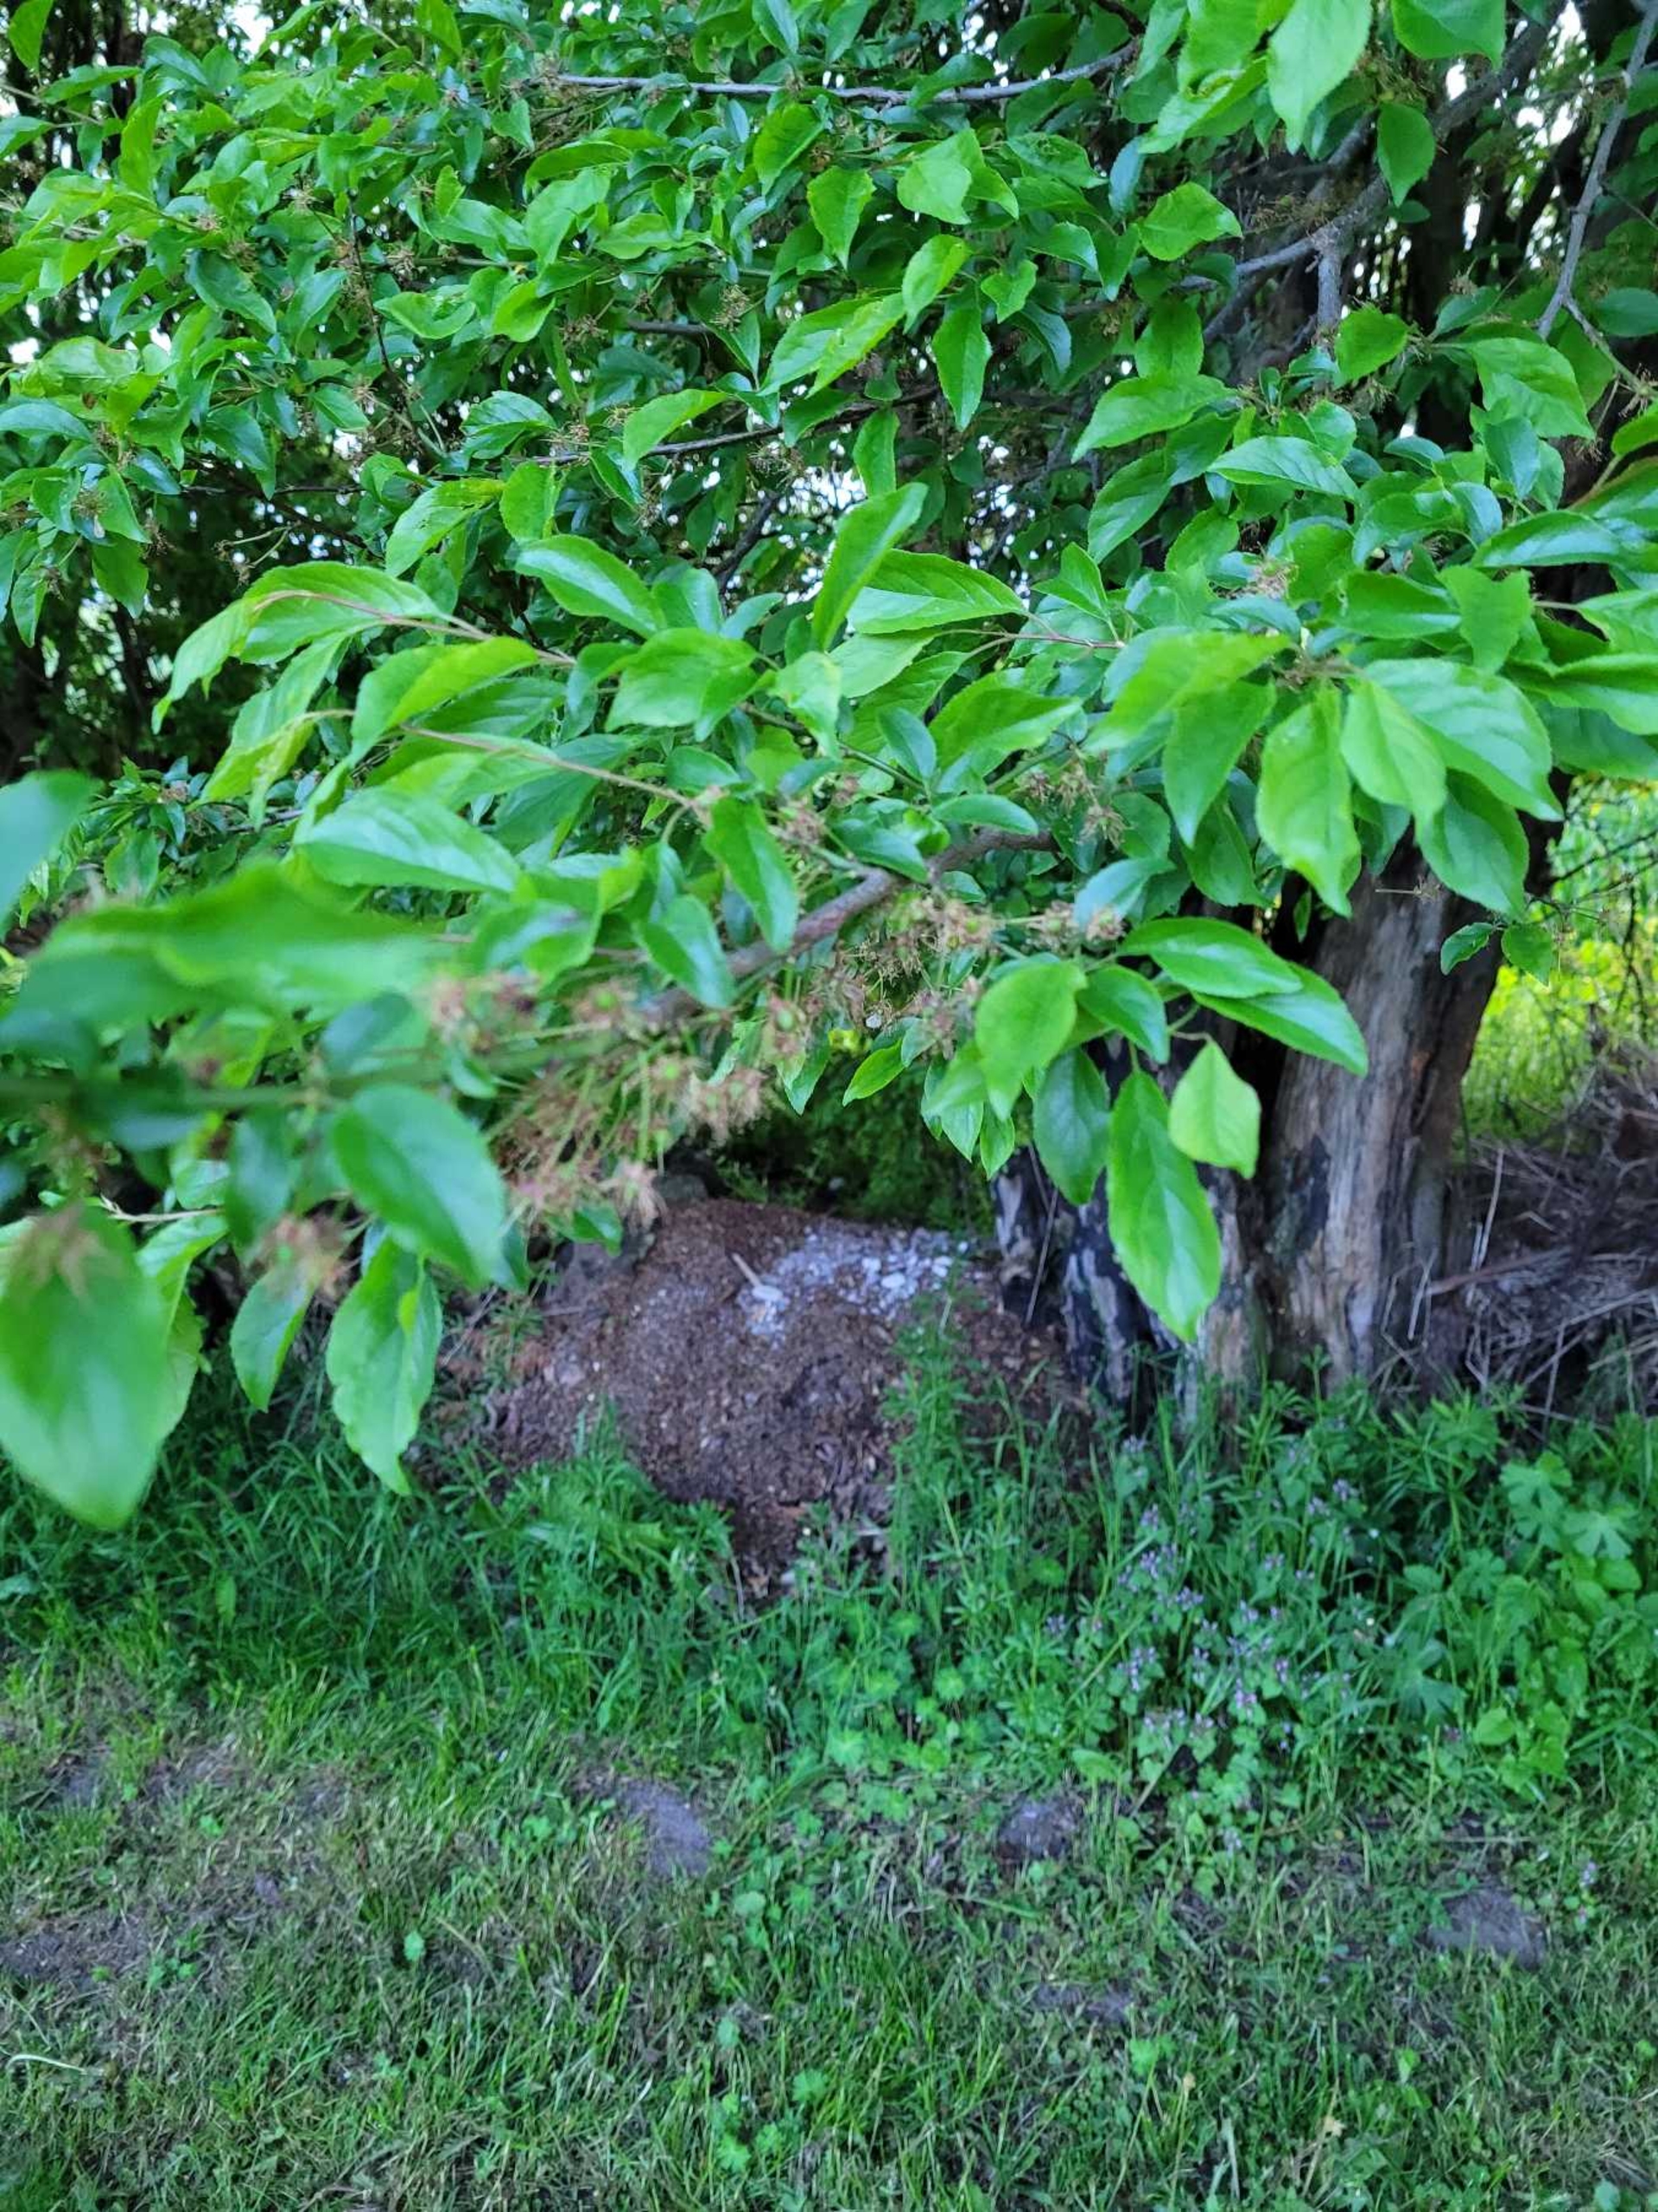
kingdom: Plantae
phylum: Tracheophyta
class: Magnoliopsida
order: Rosales
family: Rosaceae
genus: Prunus
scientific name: Prunus cerasifera
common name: Mirabel
